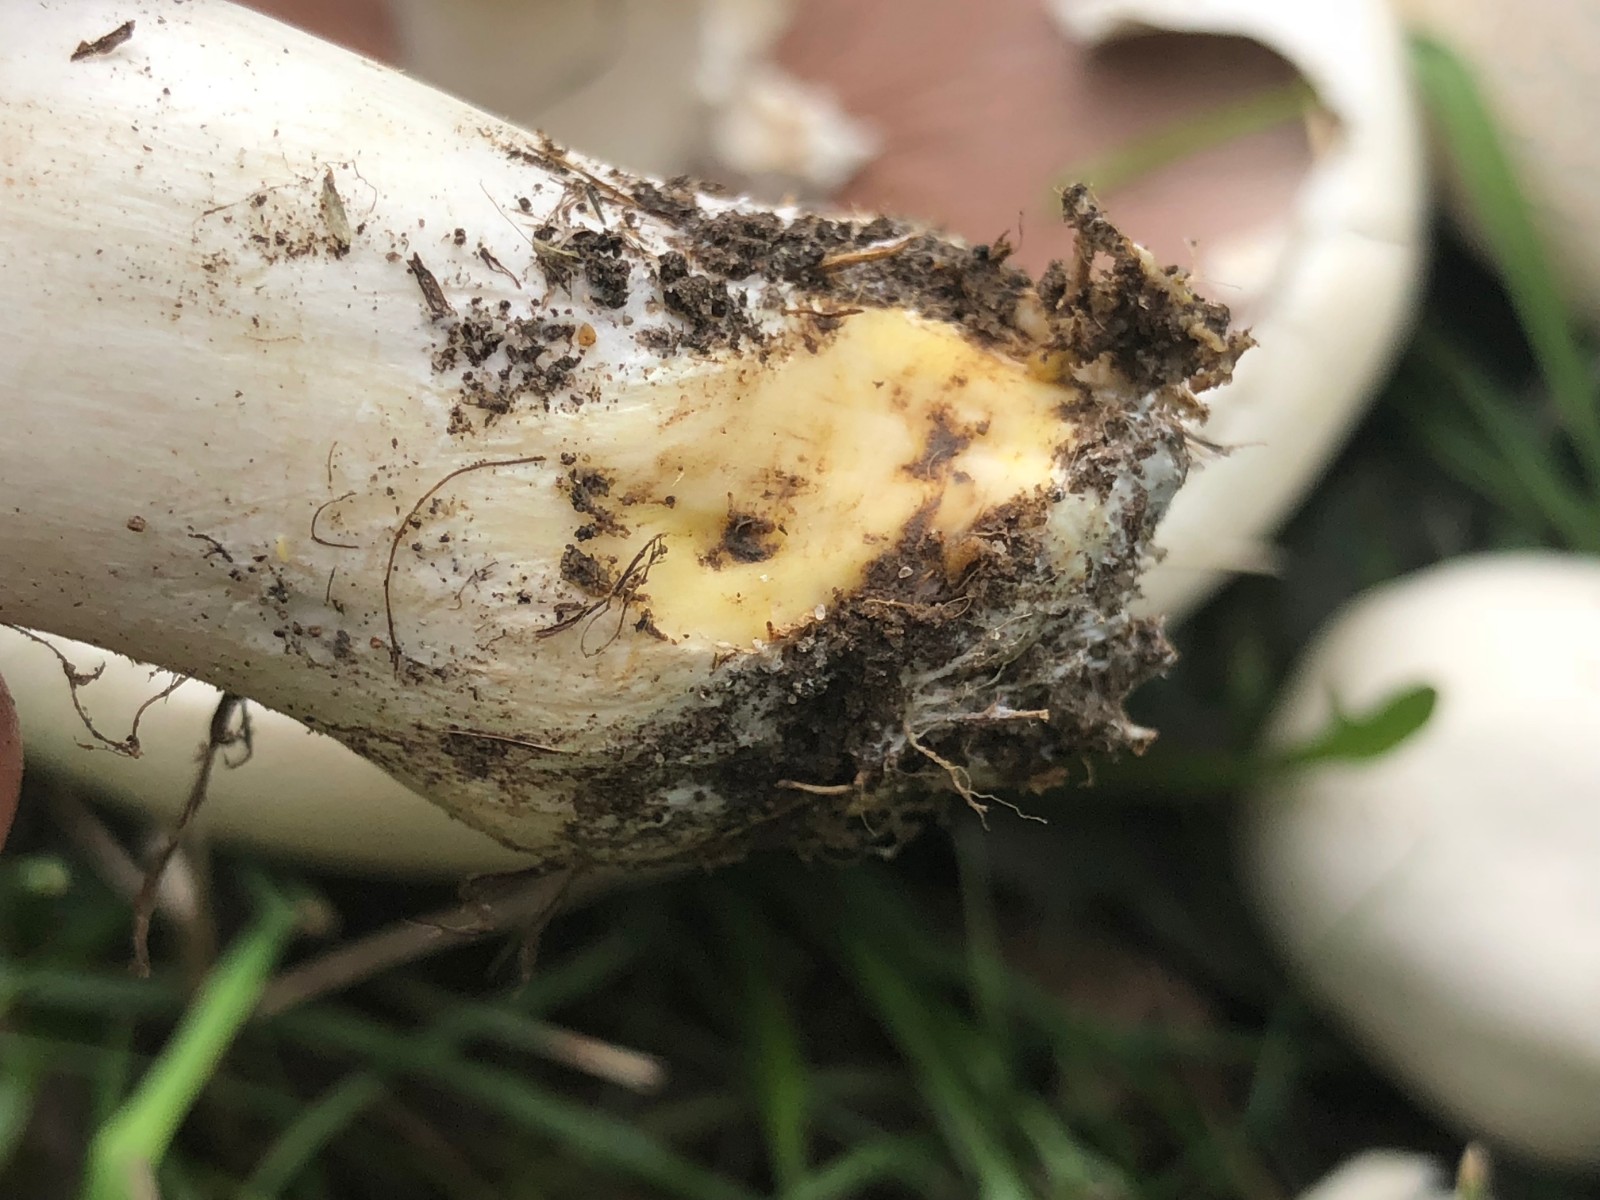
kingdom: Fungi
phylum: Basidiomycota
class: Agaricomycetes
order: Agaricales
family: Agaricaceae
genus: Agaricus
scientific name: Agaricus arvensis
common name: ager-champignon
